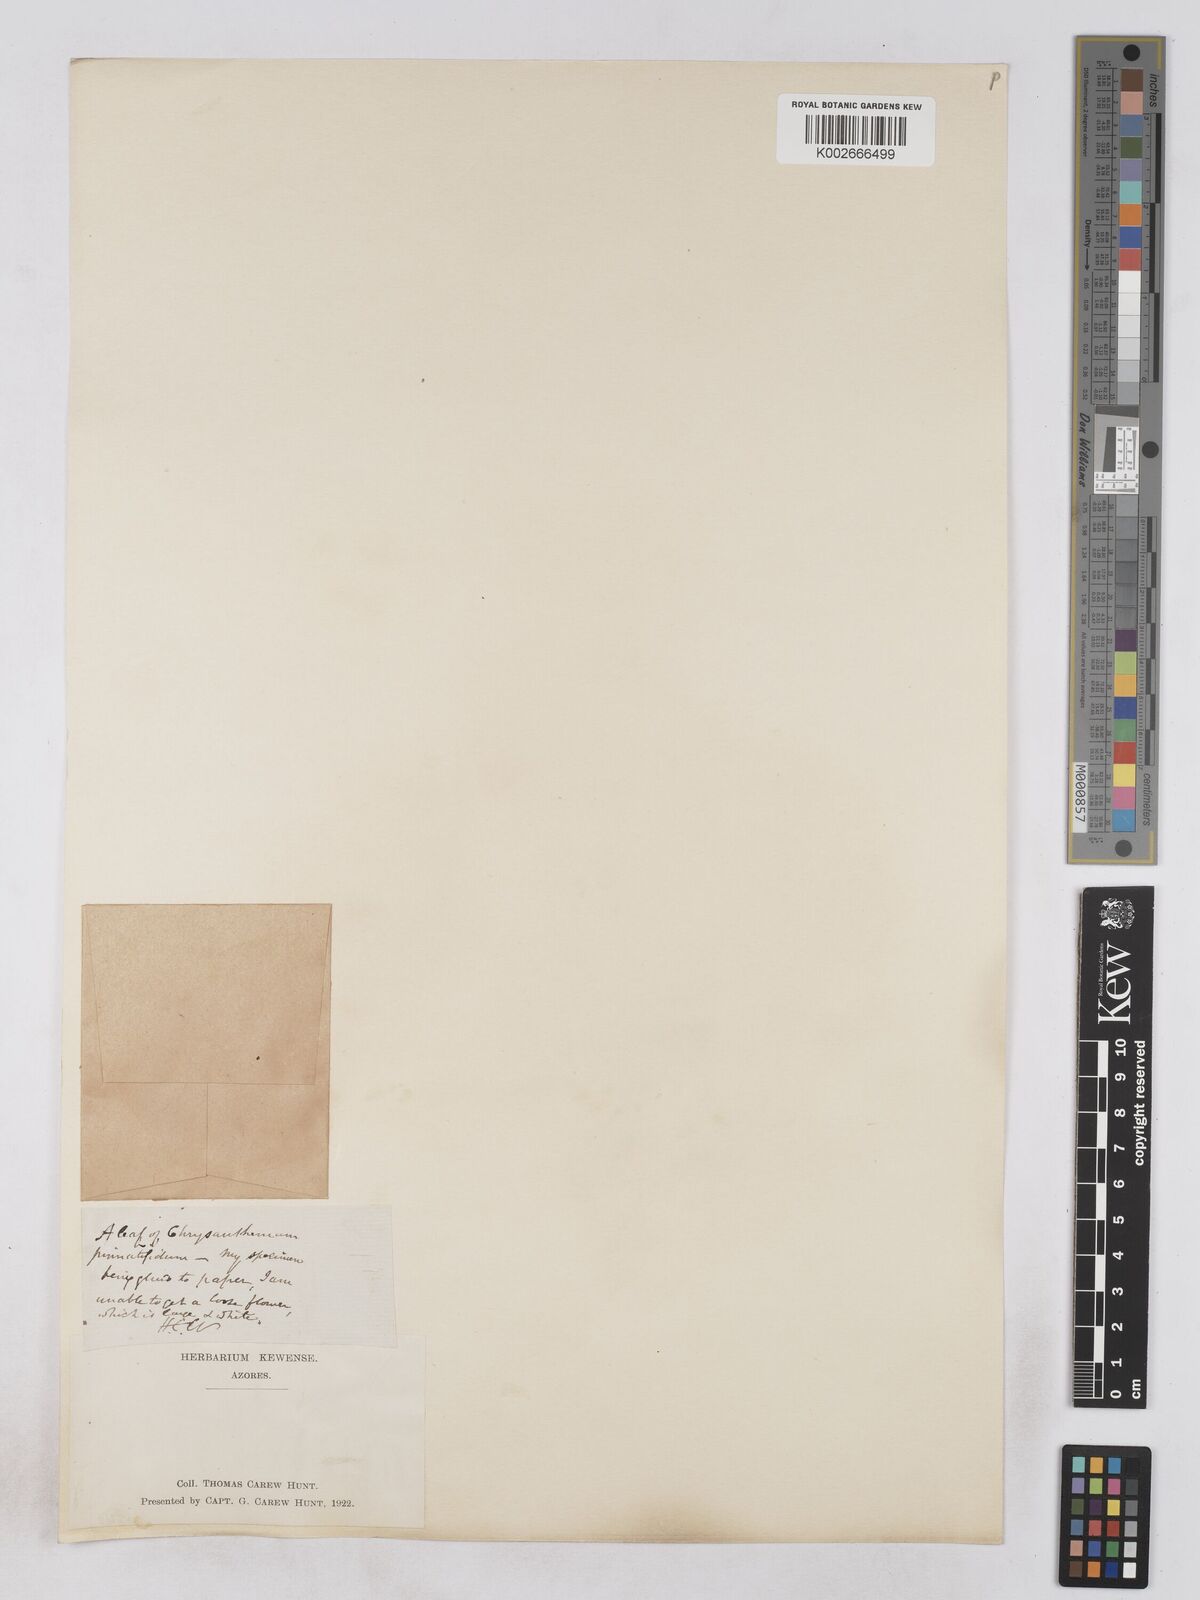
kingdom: Plantae
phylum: Tracheophyta
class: Magnoliopsida
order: Asterales
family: Asteraceae
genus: Argyranthemum
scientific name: Argyranthemum pinnatifidum
